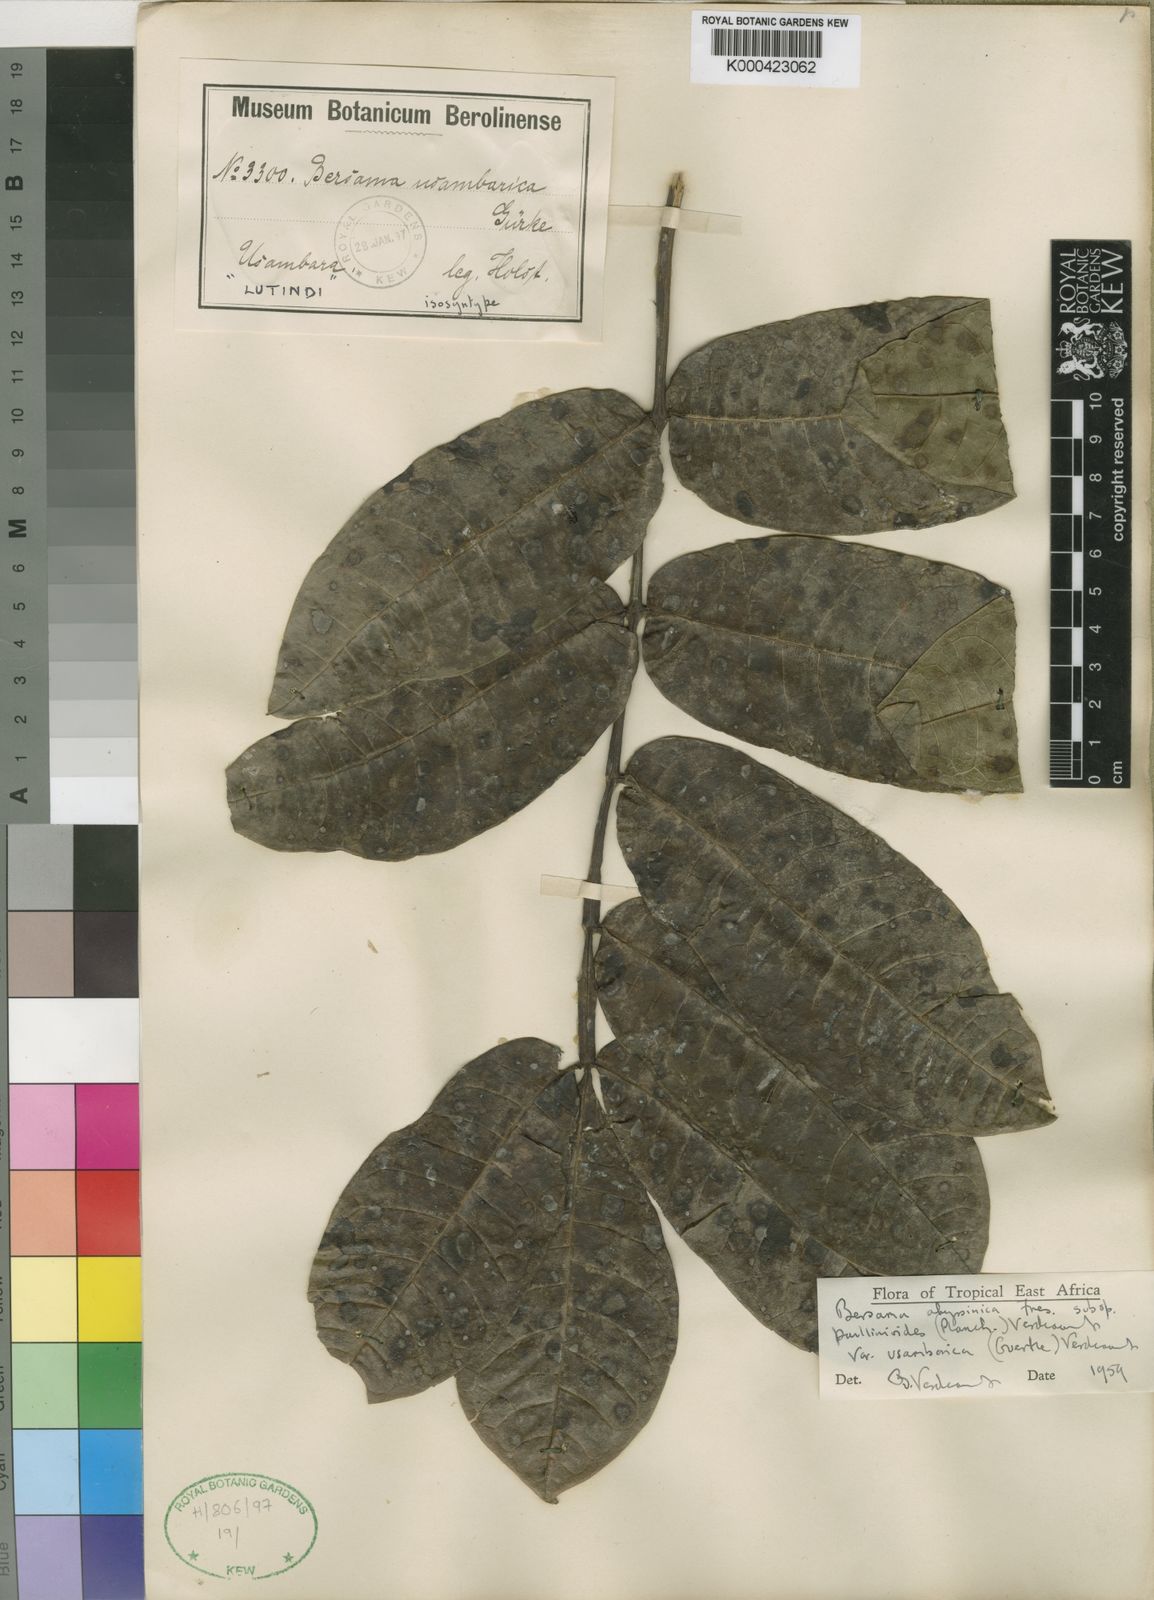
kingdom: Plantae
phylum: Tracheophyta
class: Magnoliopsida
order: Geraniales
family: Melianthaceae
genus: Bersama
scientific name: Bersama abyssinica
